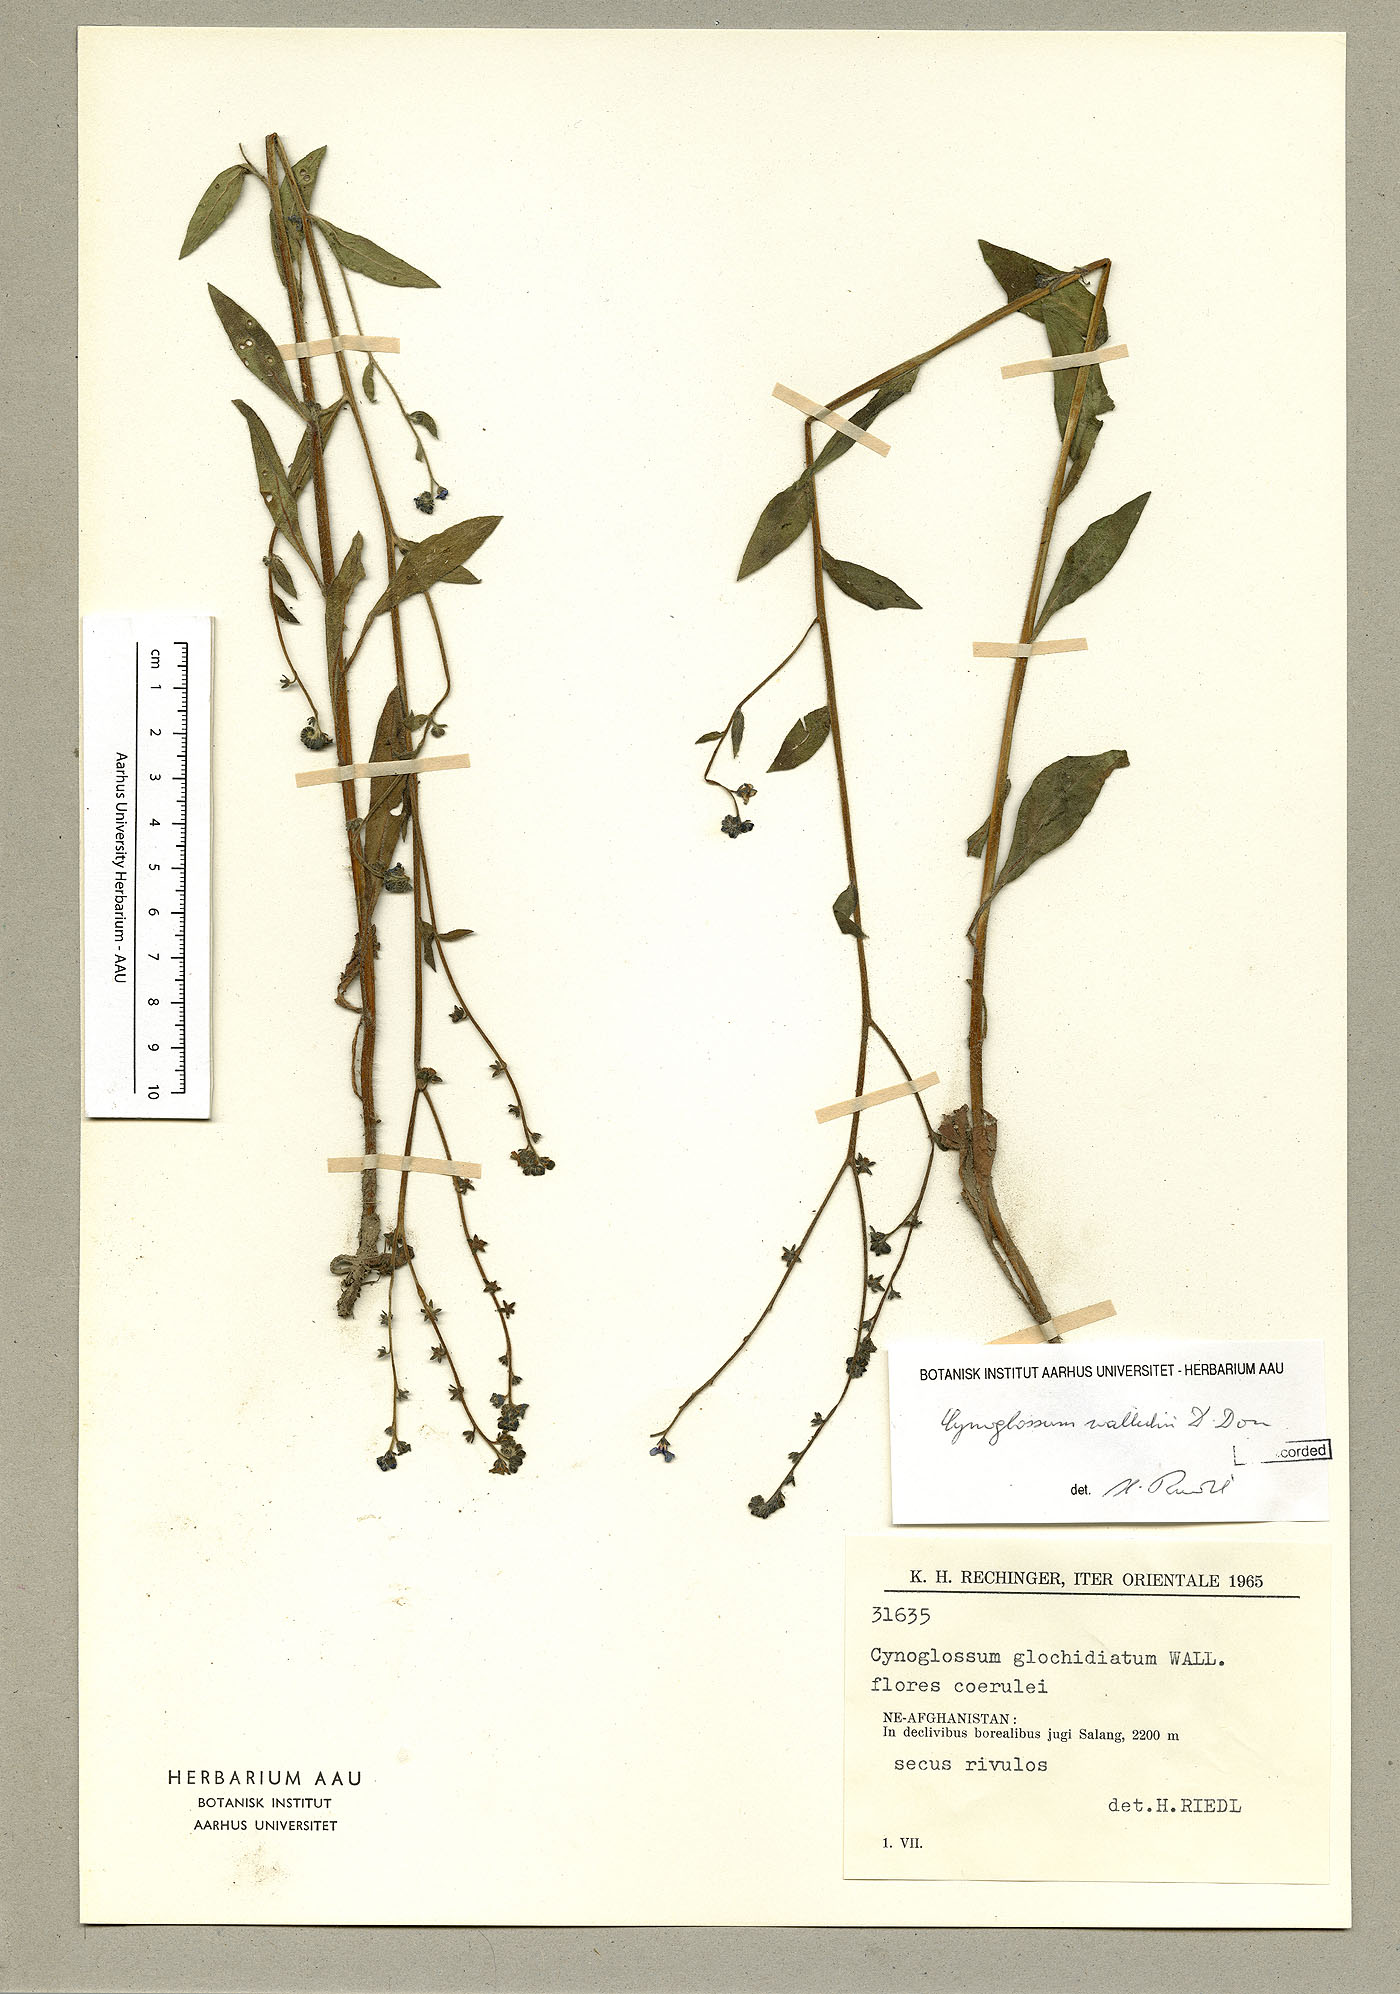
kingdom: Plantae
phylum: Tracheophyta
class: Magnoliopsida
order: Boraginales
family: Boraginaceae
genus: Paracynoglossum
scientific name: Paracynoglossum glochidiatum
